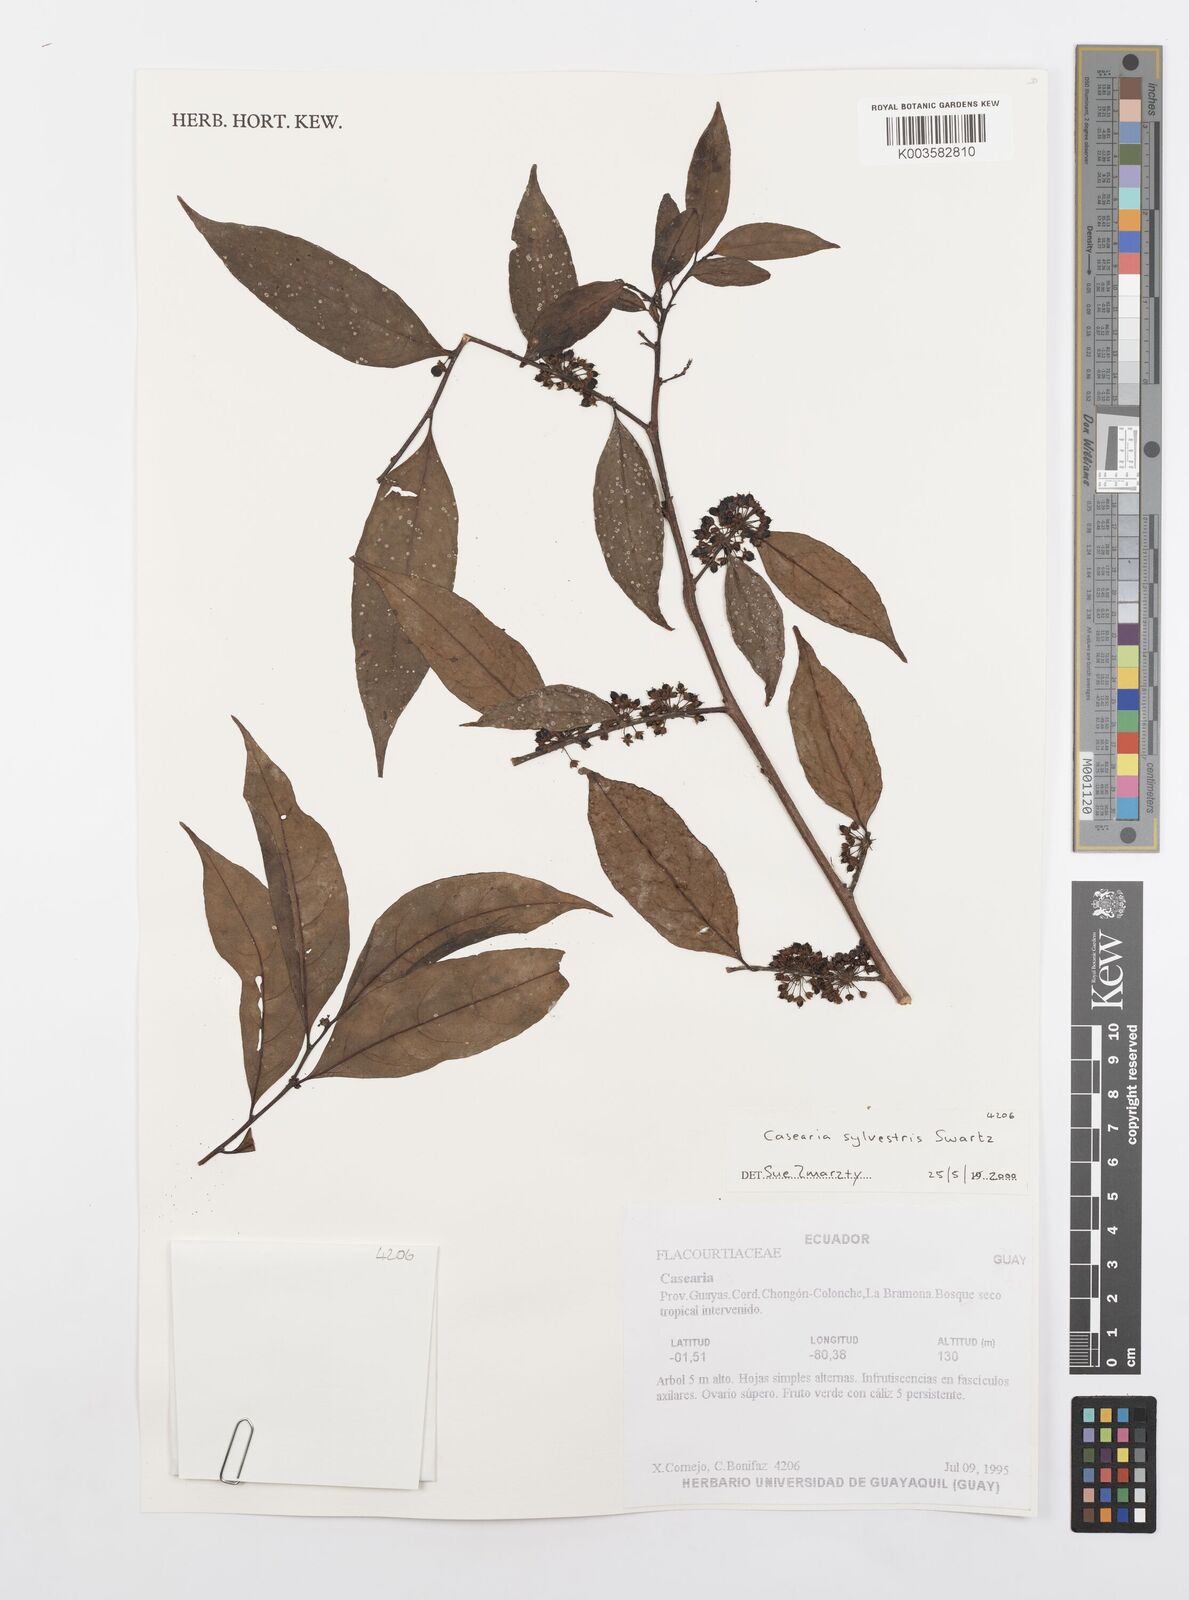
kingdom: Plantae
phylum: Tracheophyta
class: Magnoliopsida
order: Malpighiales
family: Salicaceae
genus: Casearia
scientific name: Casearia sylvestris
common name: Wild sage
